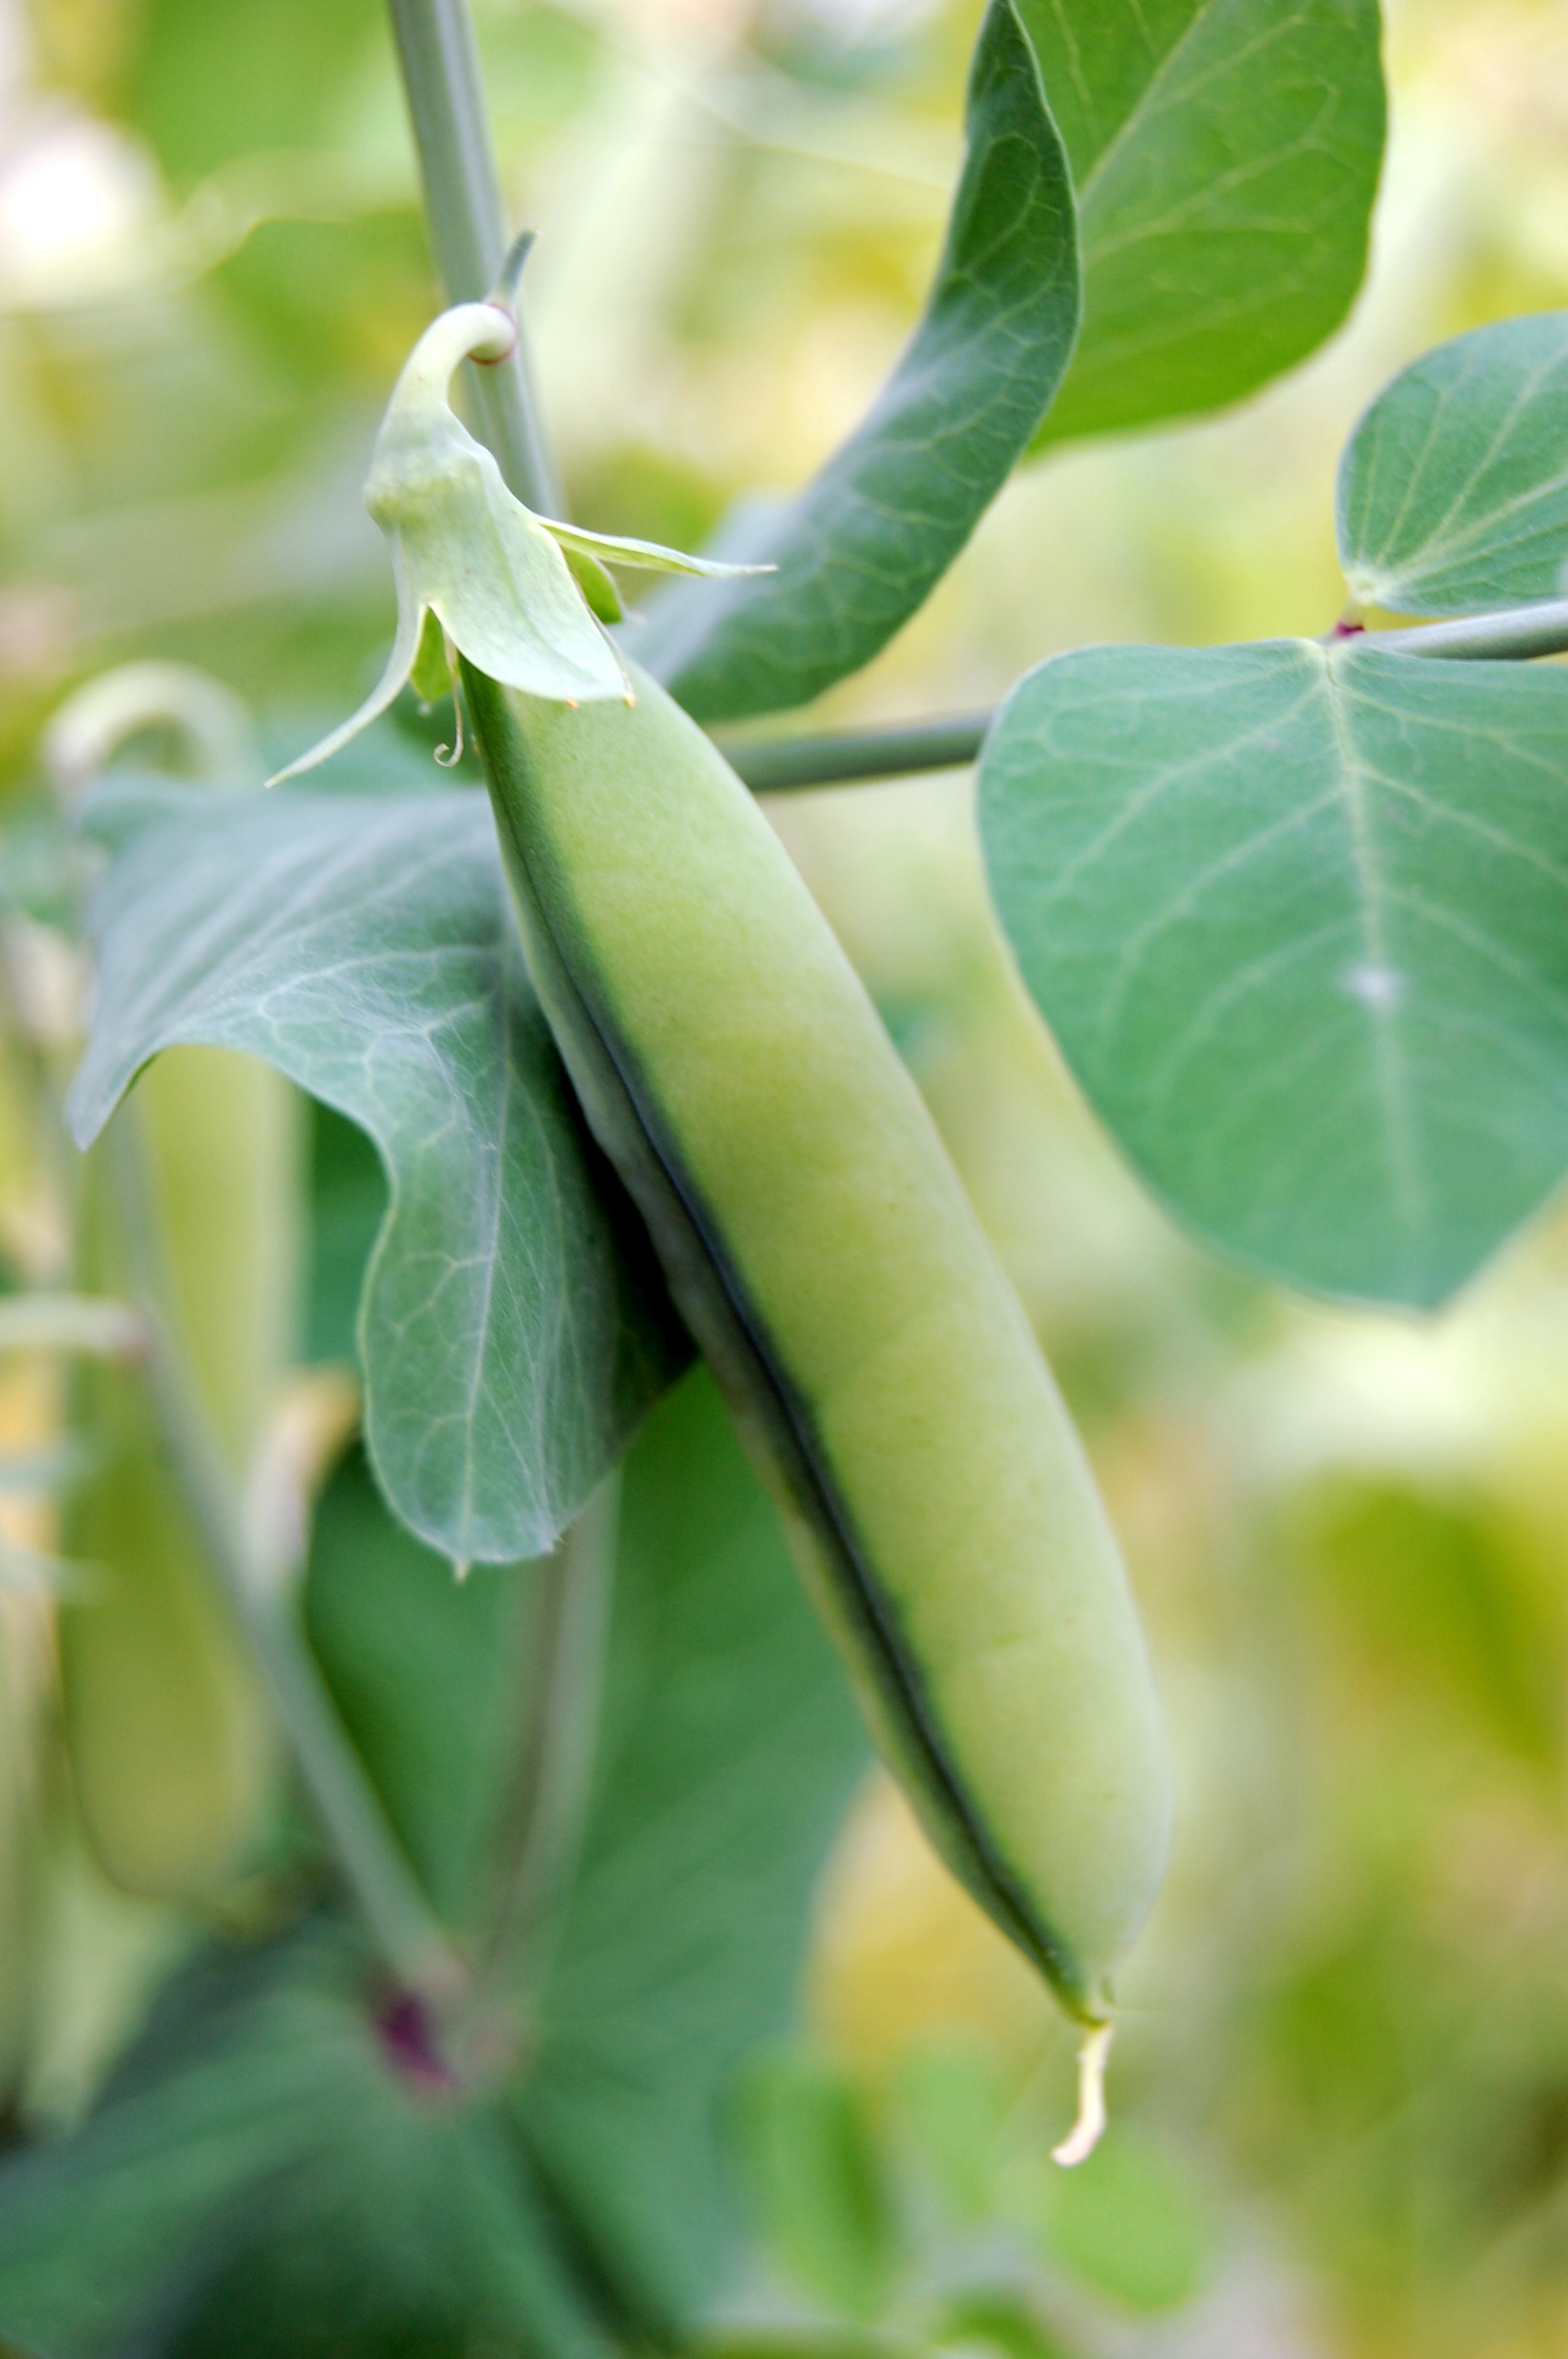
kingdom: Plantae
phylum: Tracheophyta
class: Magnoliopsida
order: Fabales
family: Fabaceae
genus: Lathyrus
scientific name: Lathyrus oleraceus
